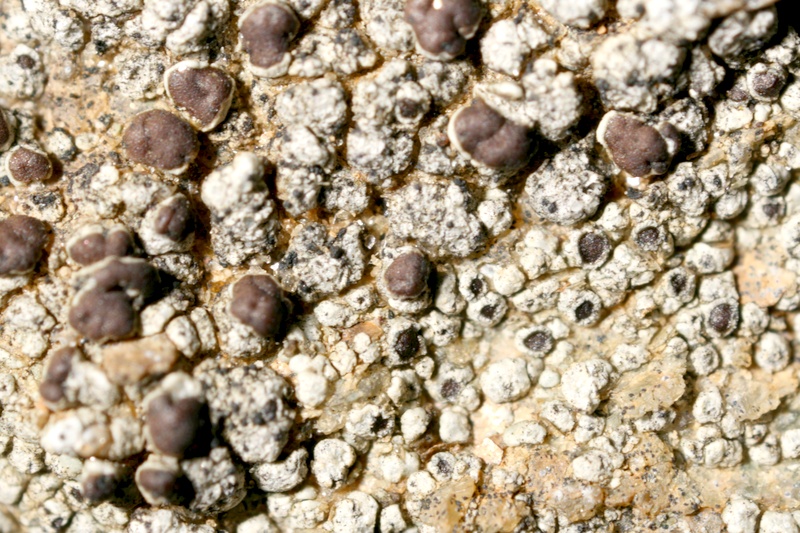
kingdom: Fungi
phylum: Ascomycota
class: Lecanoromycetes
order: Lecanorales
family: Lecanoraceae
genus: Lecanora
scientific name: Lecanora
